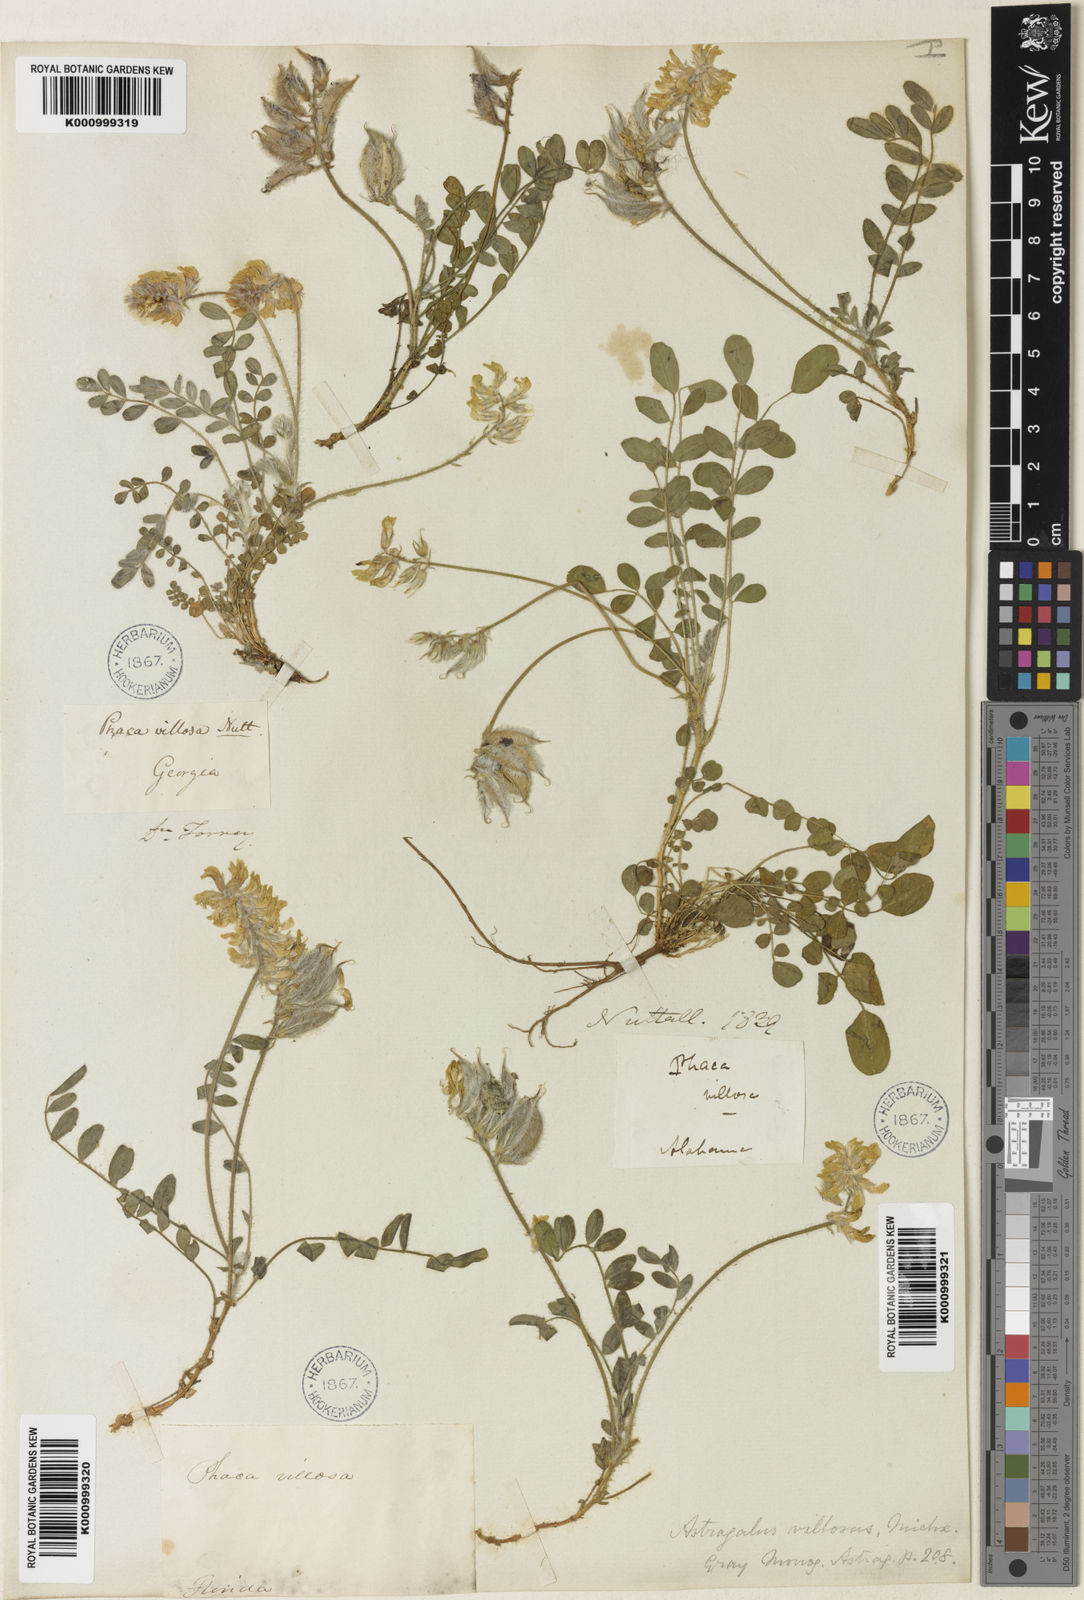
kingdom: Plantae
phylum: Tracheophyta
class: Magnoliopsida
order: Fabales
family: Fabaceae
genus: Astragalus
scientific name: Astragalus villosus
